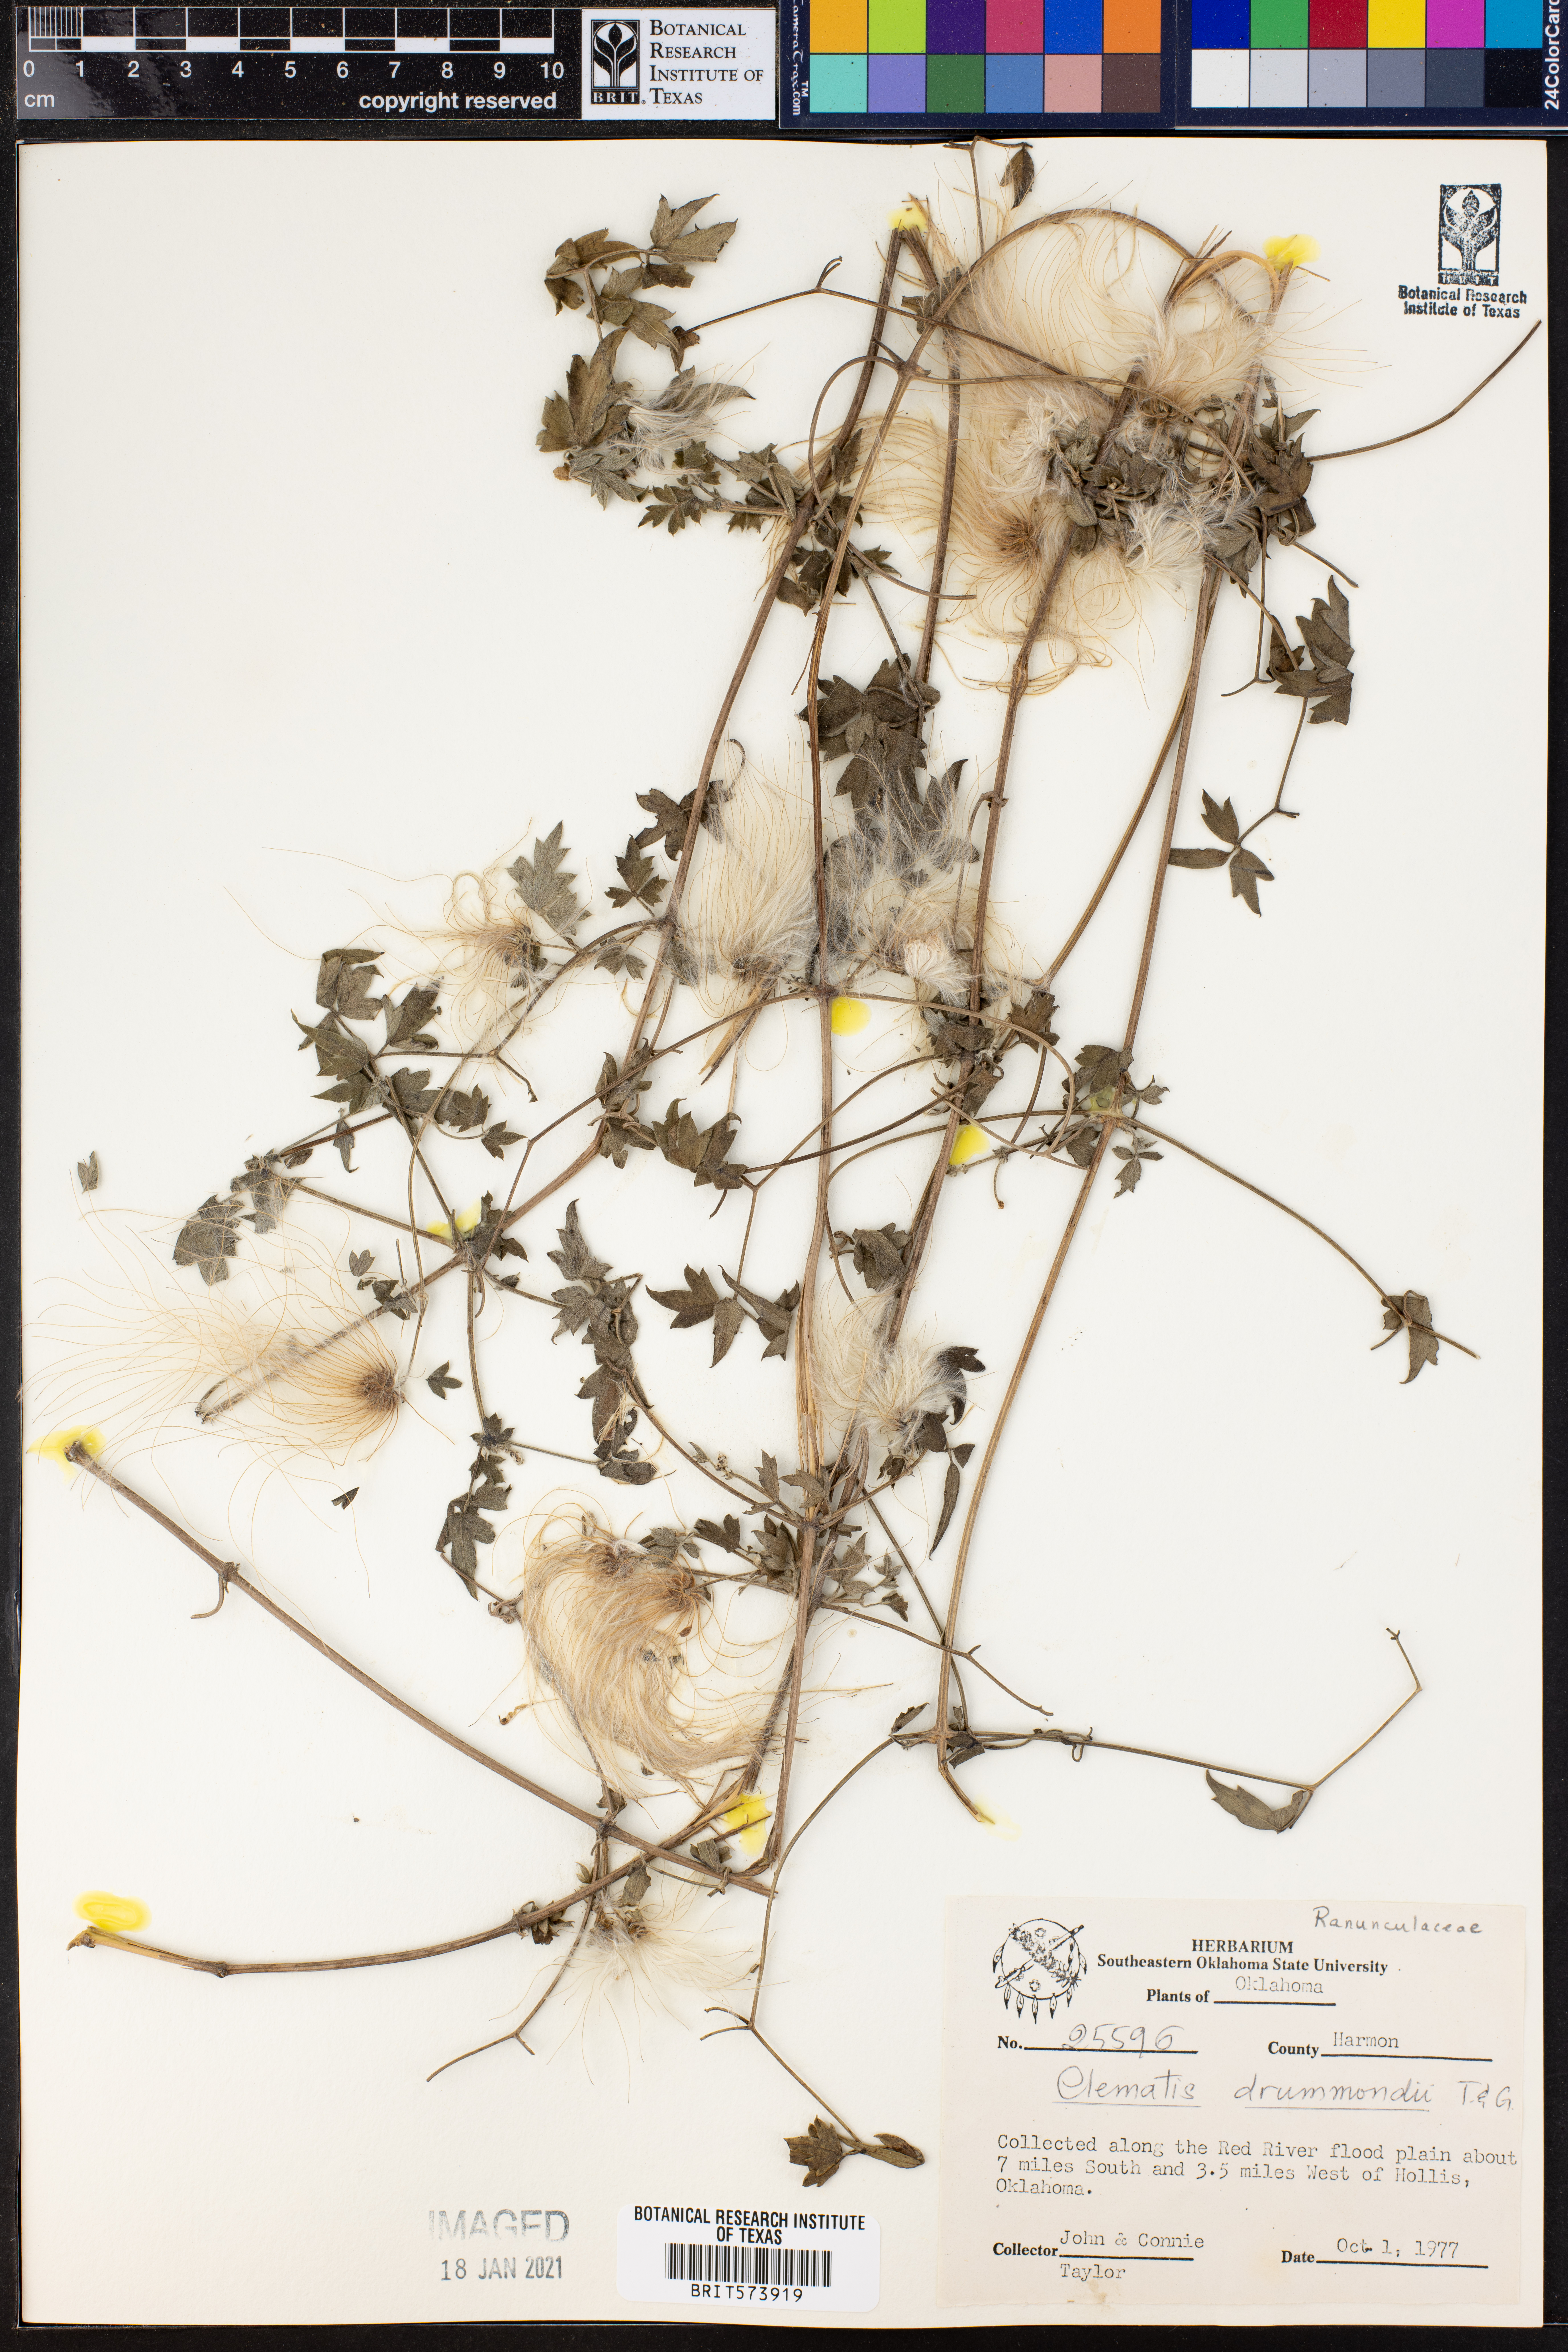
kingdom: Plantae
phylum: Tracheophyta
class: Magnoliopsida
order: Ranunculales
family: Ranunculaceae
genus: Clematis
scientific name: Clematis drummondii
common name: Texas virgin's bower
